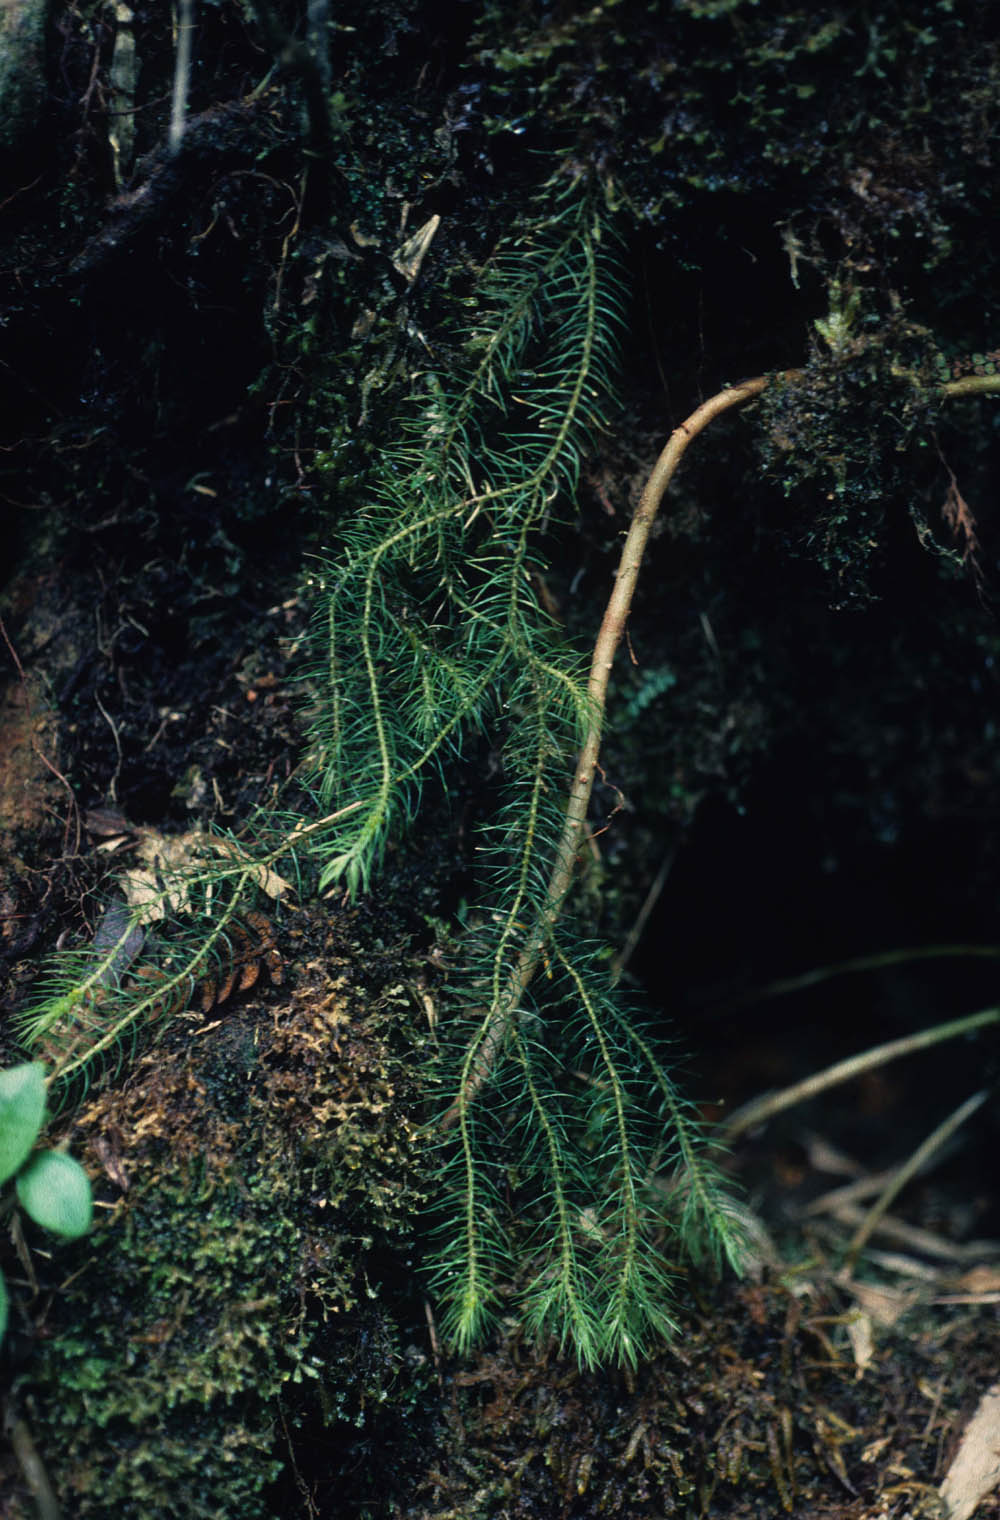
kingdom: Plantae
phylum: Tracheophyta
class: Lycopodiopsida
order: Lycopodiales
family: Lycopodiaceae
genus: Phlegmariurus
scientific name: Phlegmariurus sarmentosus
